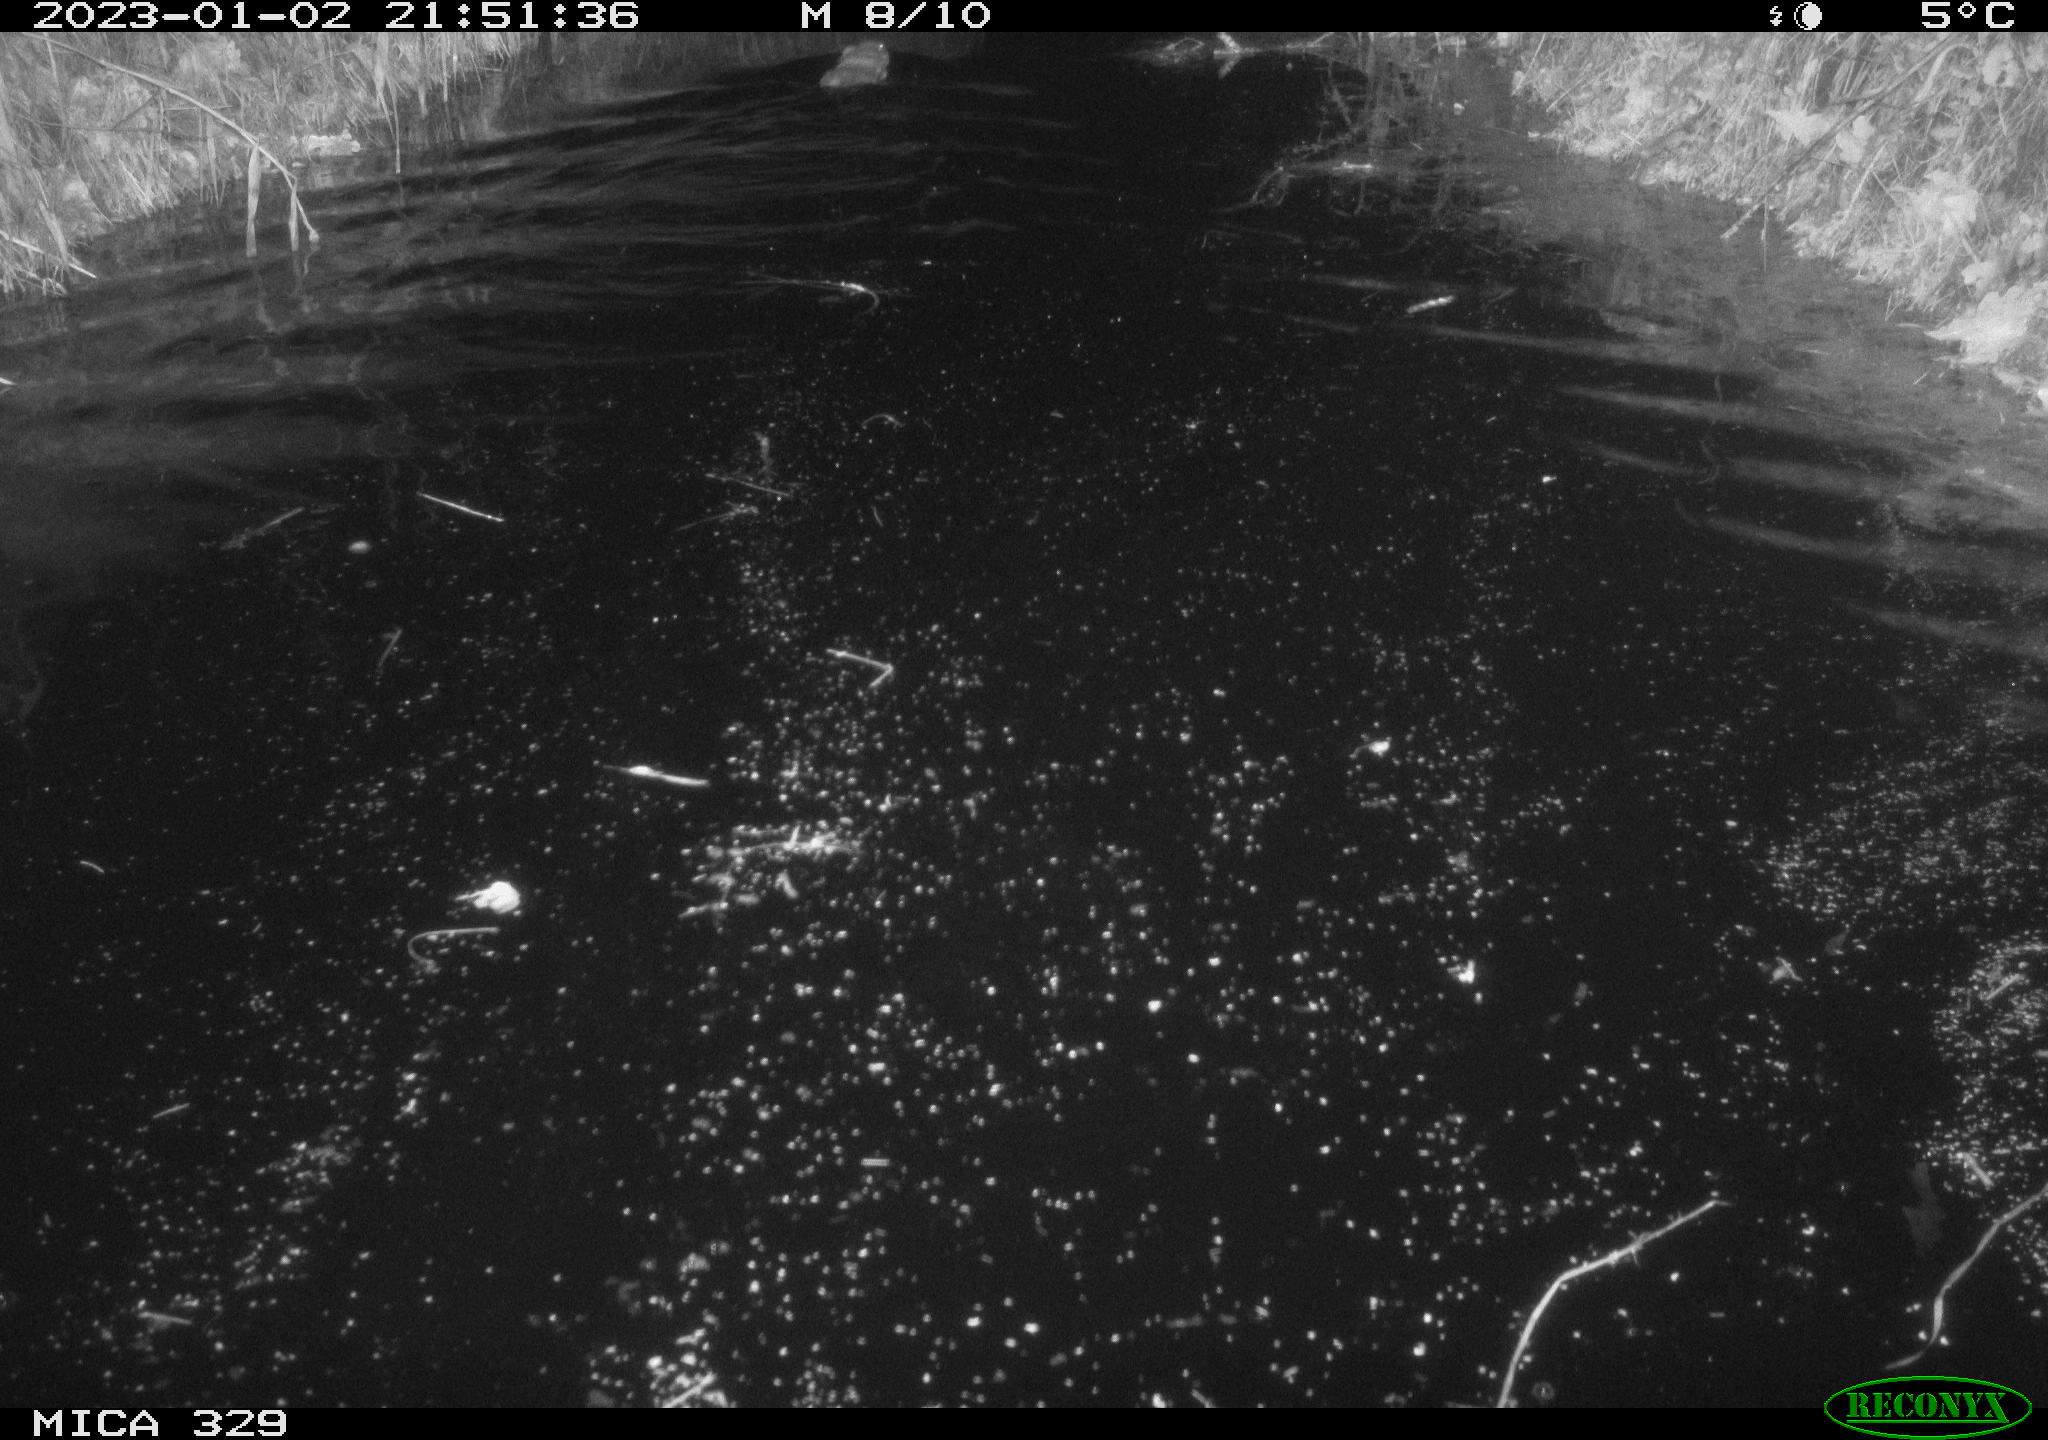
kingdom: Animalia
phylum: Chordata
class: Mammalia
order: Rodentia
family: Cricetidae
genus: Ondatra
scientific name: Ondatra zibethicus
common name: Muskrat
